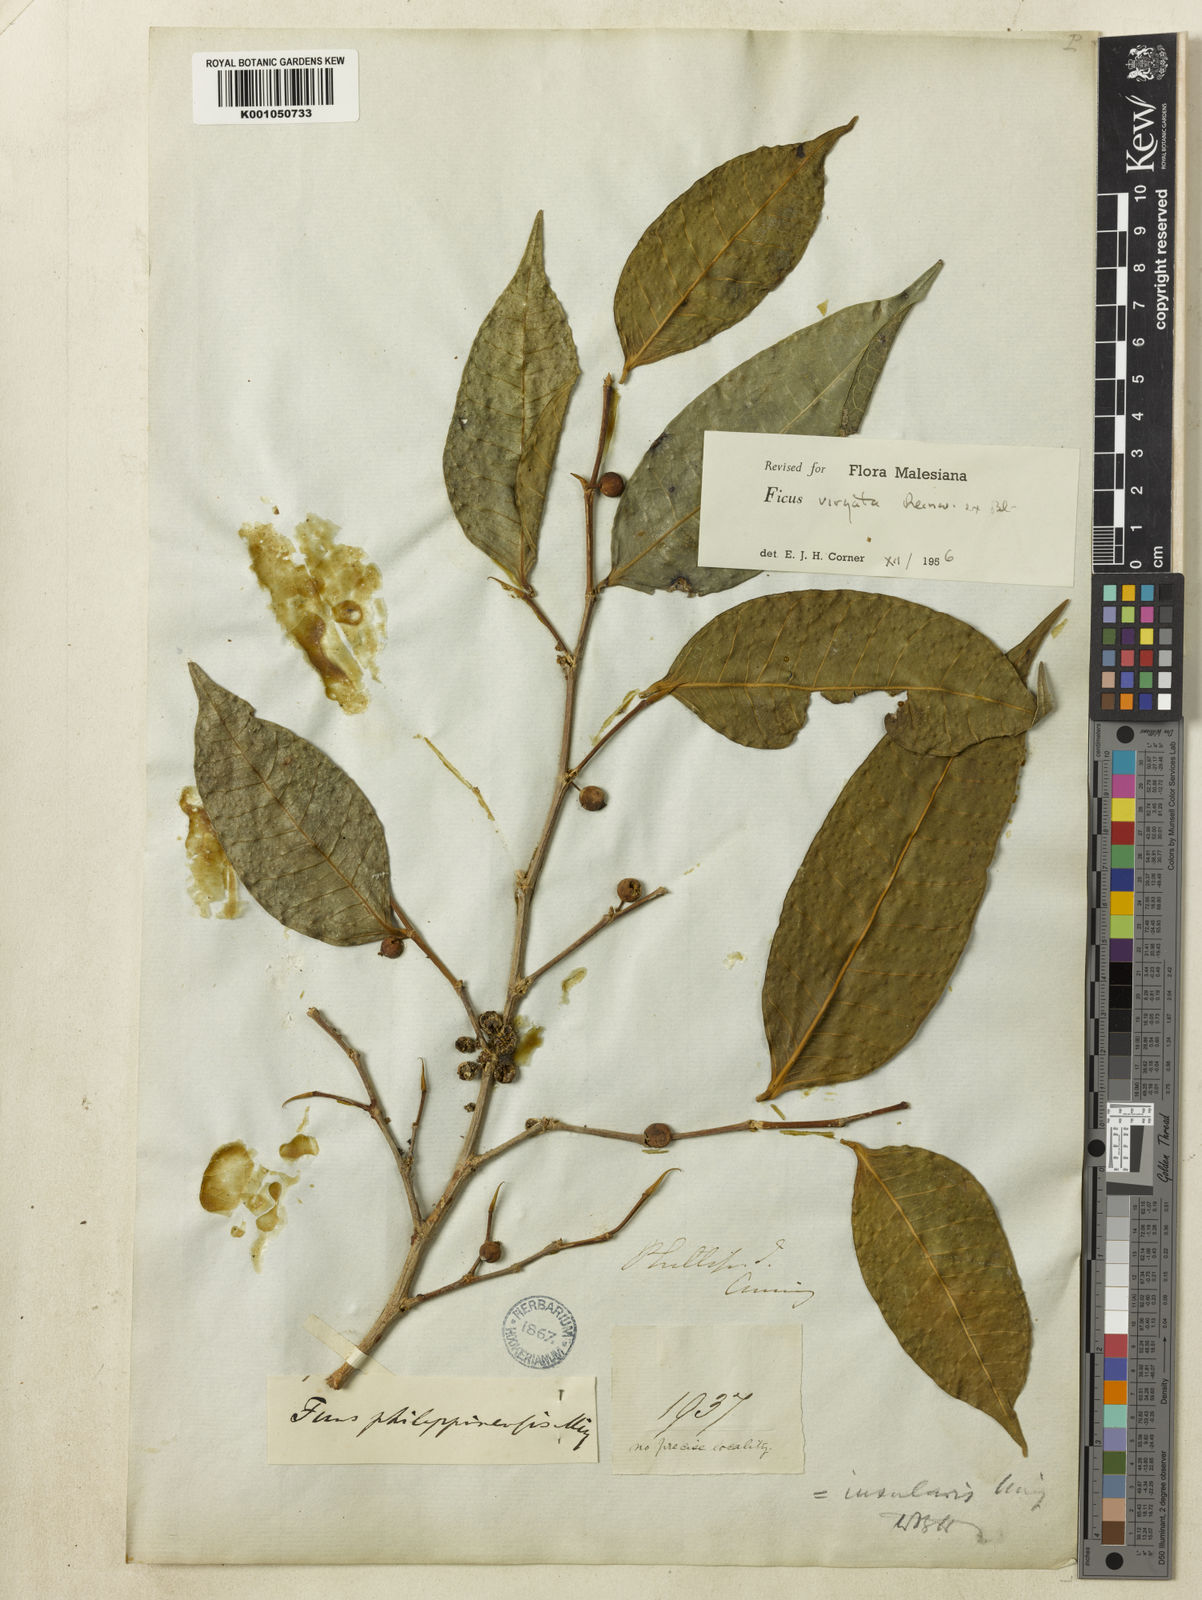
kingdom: Plantae
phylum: Tracheophyta
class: Magnoliopsida
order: Rosales
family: Moraceae
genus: Ficus
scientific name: Ficus virgata
